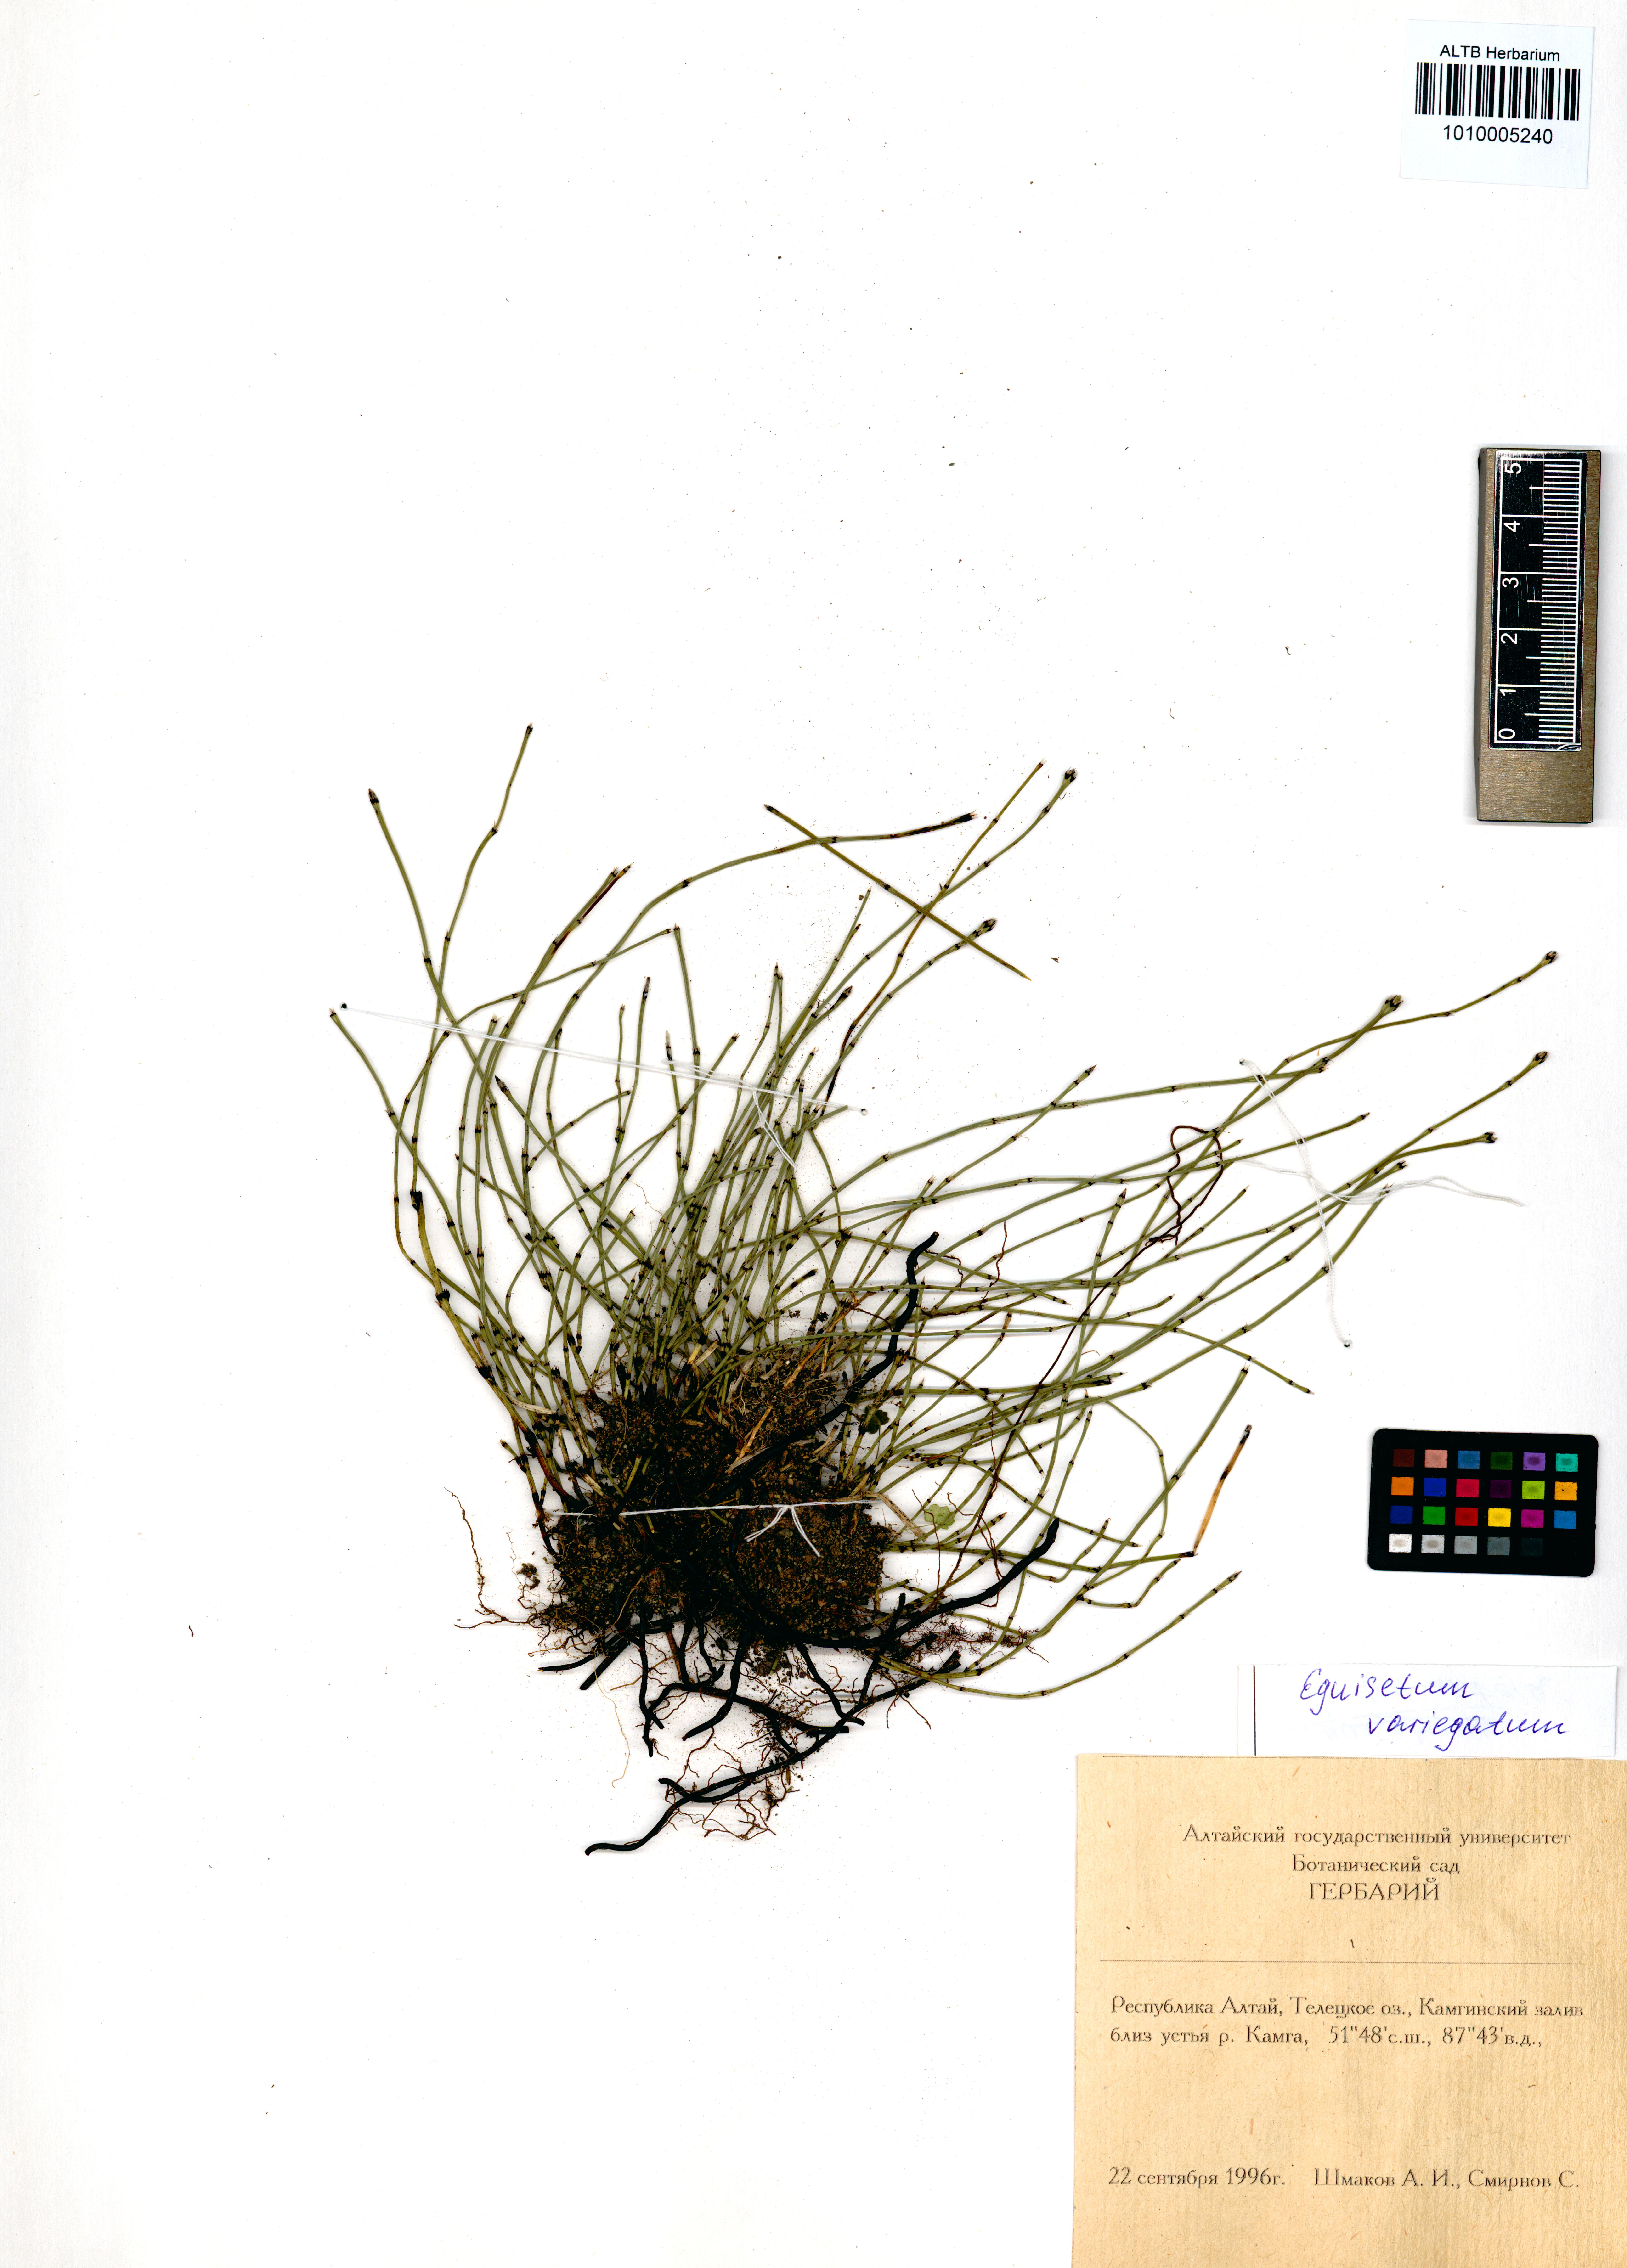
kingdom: Plantae
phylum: Tracheophyta
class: Polypodiopsida
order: Equisetales
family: Equisetaceae
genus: Equisetum
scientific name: Equisetum variegatum
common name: Variegated horsetail
